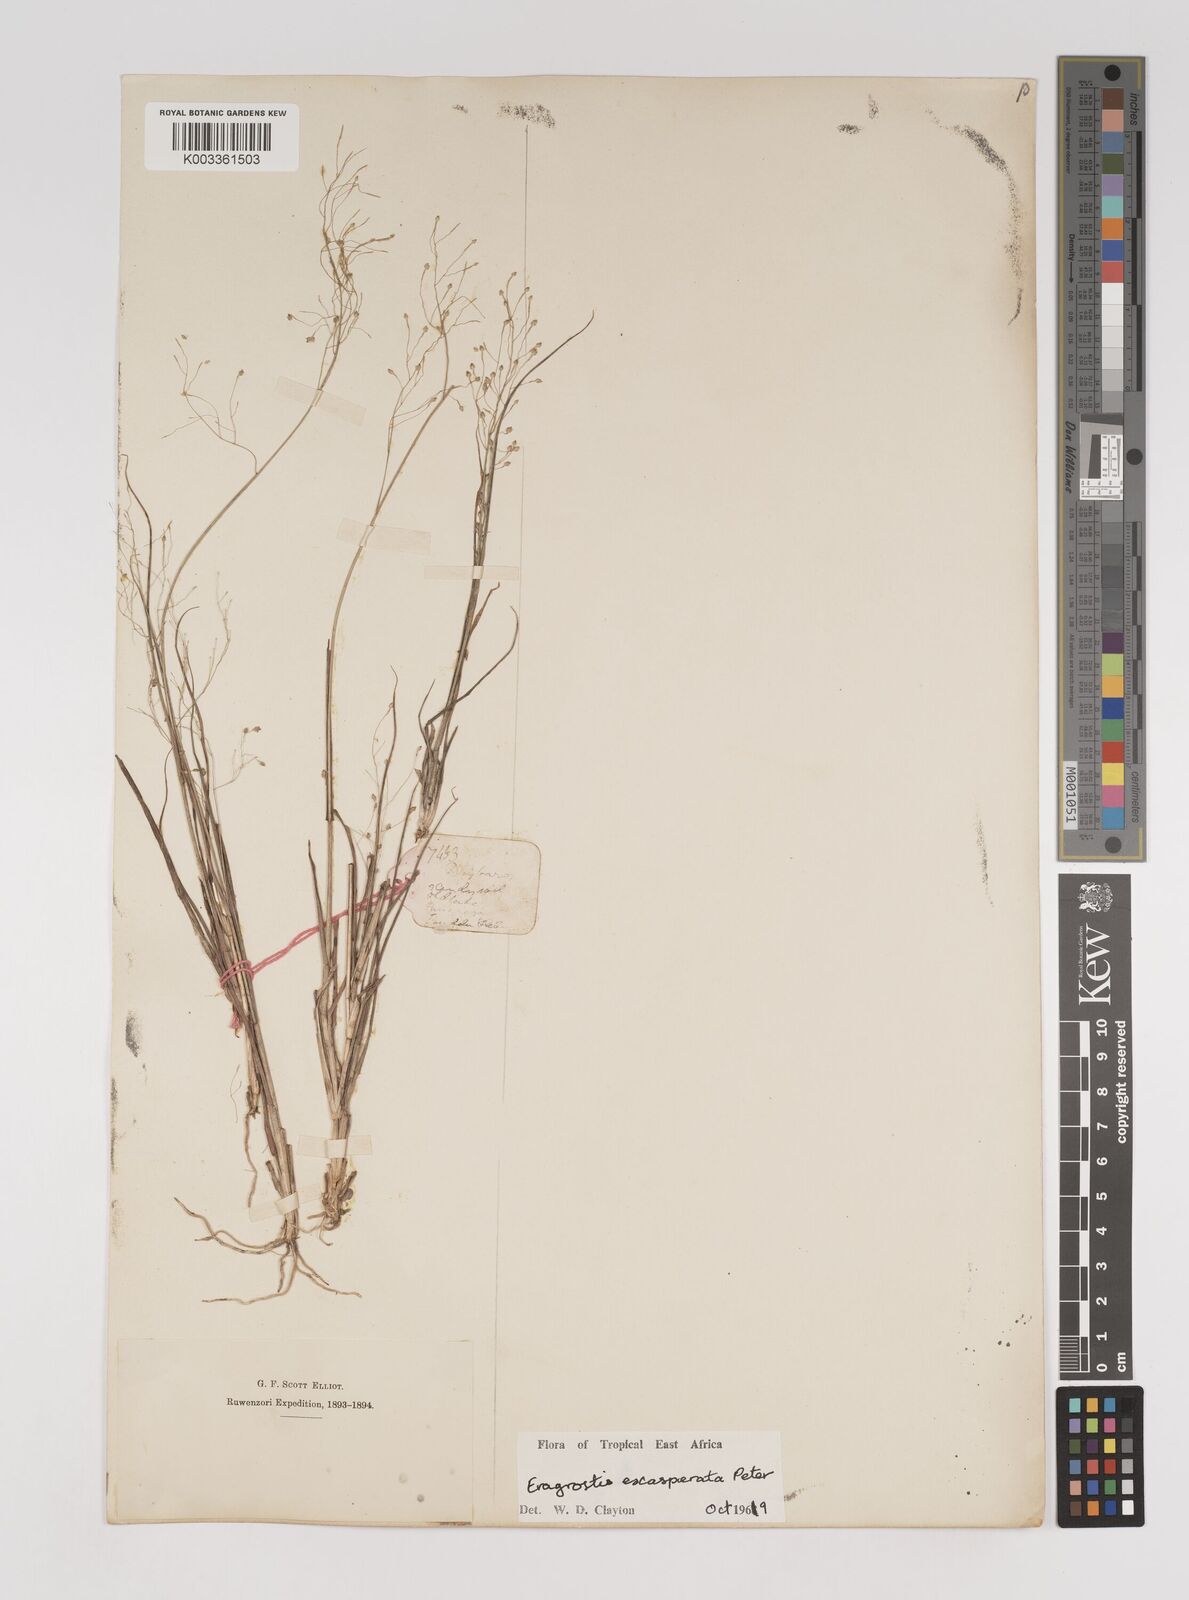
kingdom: Plantae
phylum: Tracheophyta
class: Liliopsida
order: Poales
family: Poaceae
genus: Eragrostis
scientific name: Eragrostis exasperata
